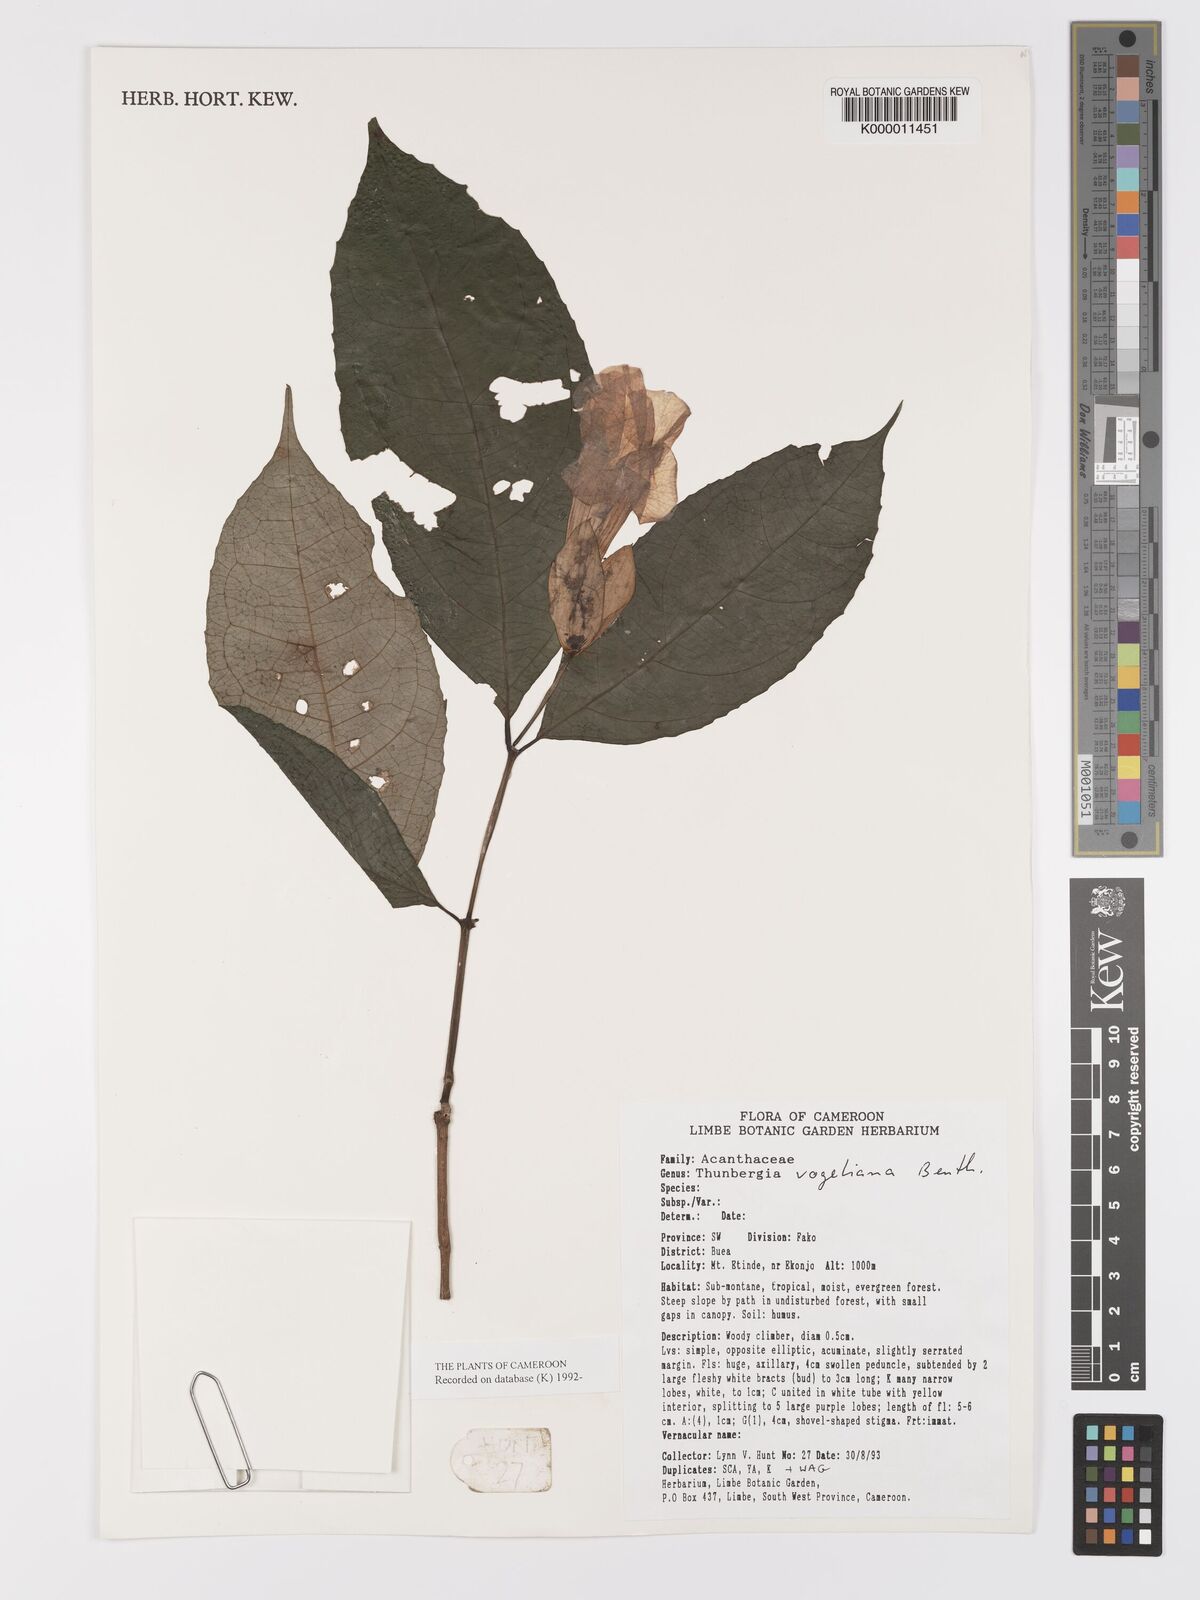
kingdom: Plantae
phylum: Tracheophyta
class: Magnoliopsida
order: Lamiales
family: Acanthaceae
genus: Thunbergia
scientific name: Thunbergia vogeliana
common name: Acanthaceae
